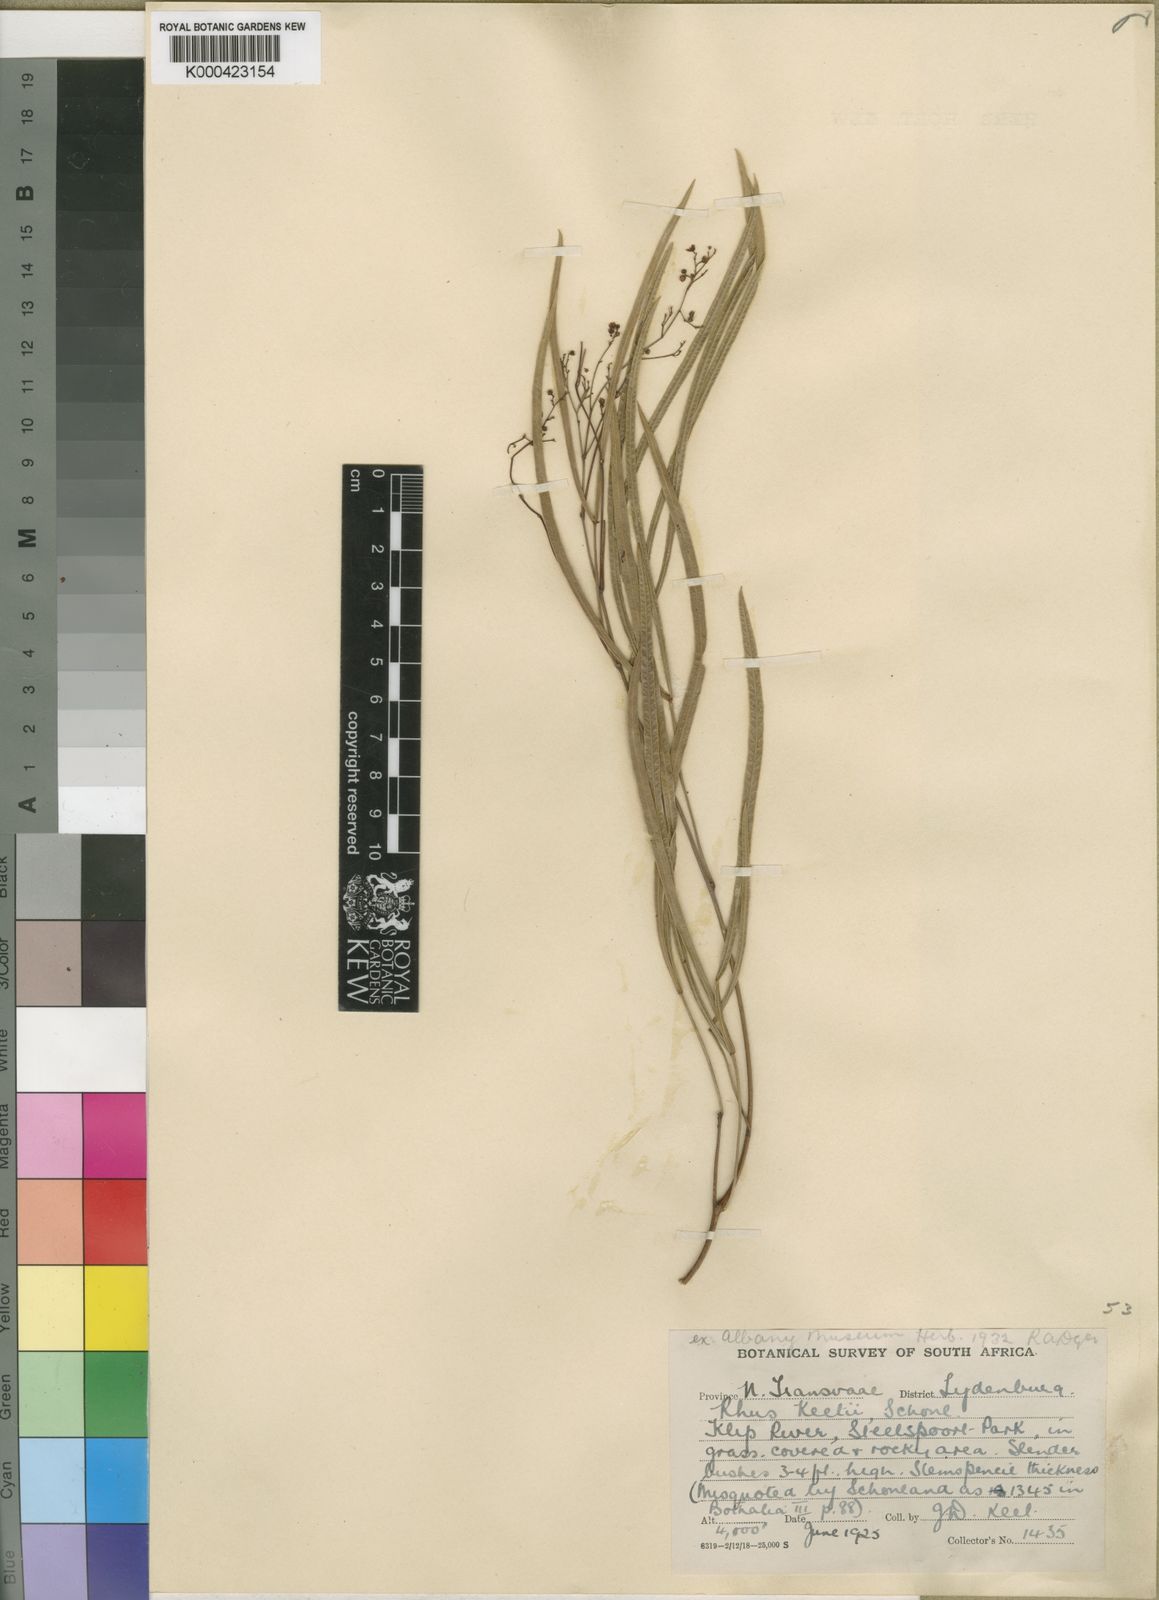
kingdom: Plantae
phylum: Tracheophyta
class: Magnoliopsida
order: Sapindales
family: Anacardiaceae
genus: Rhus
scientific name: Rhus
